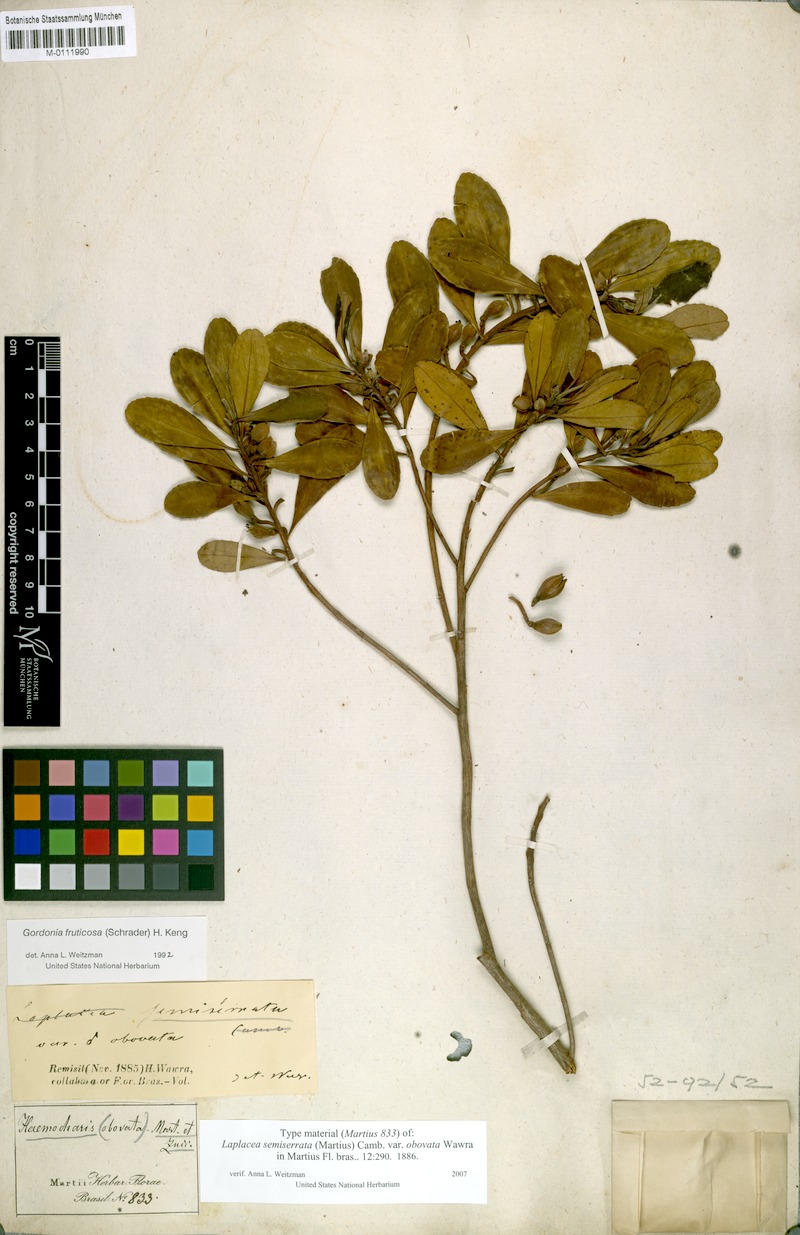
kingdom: Plantae
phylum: Tracheophyta
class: Magnoliopsida
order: Ericales
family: Theaceae
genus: Gordonia
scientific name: Gordonia fruticosa
